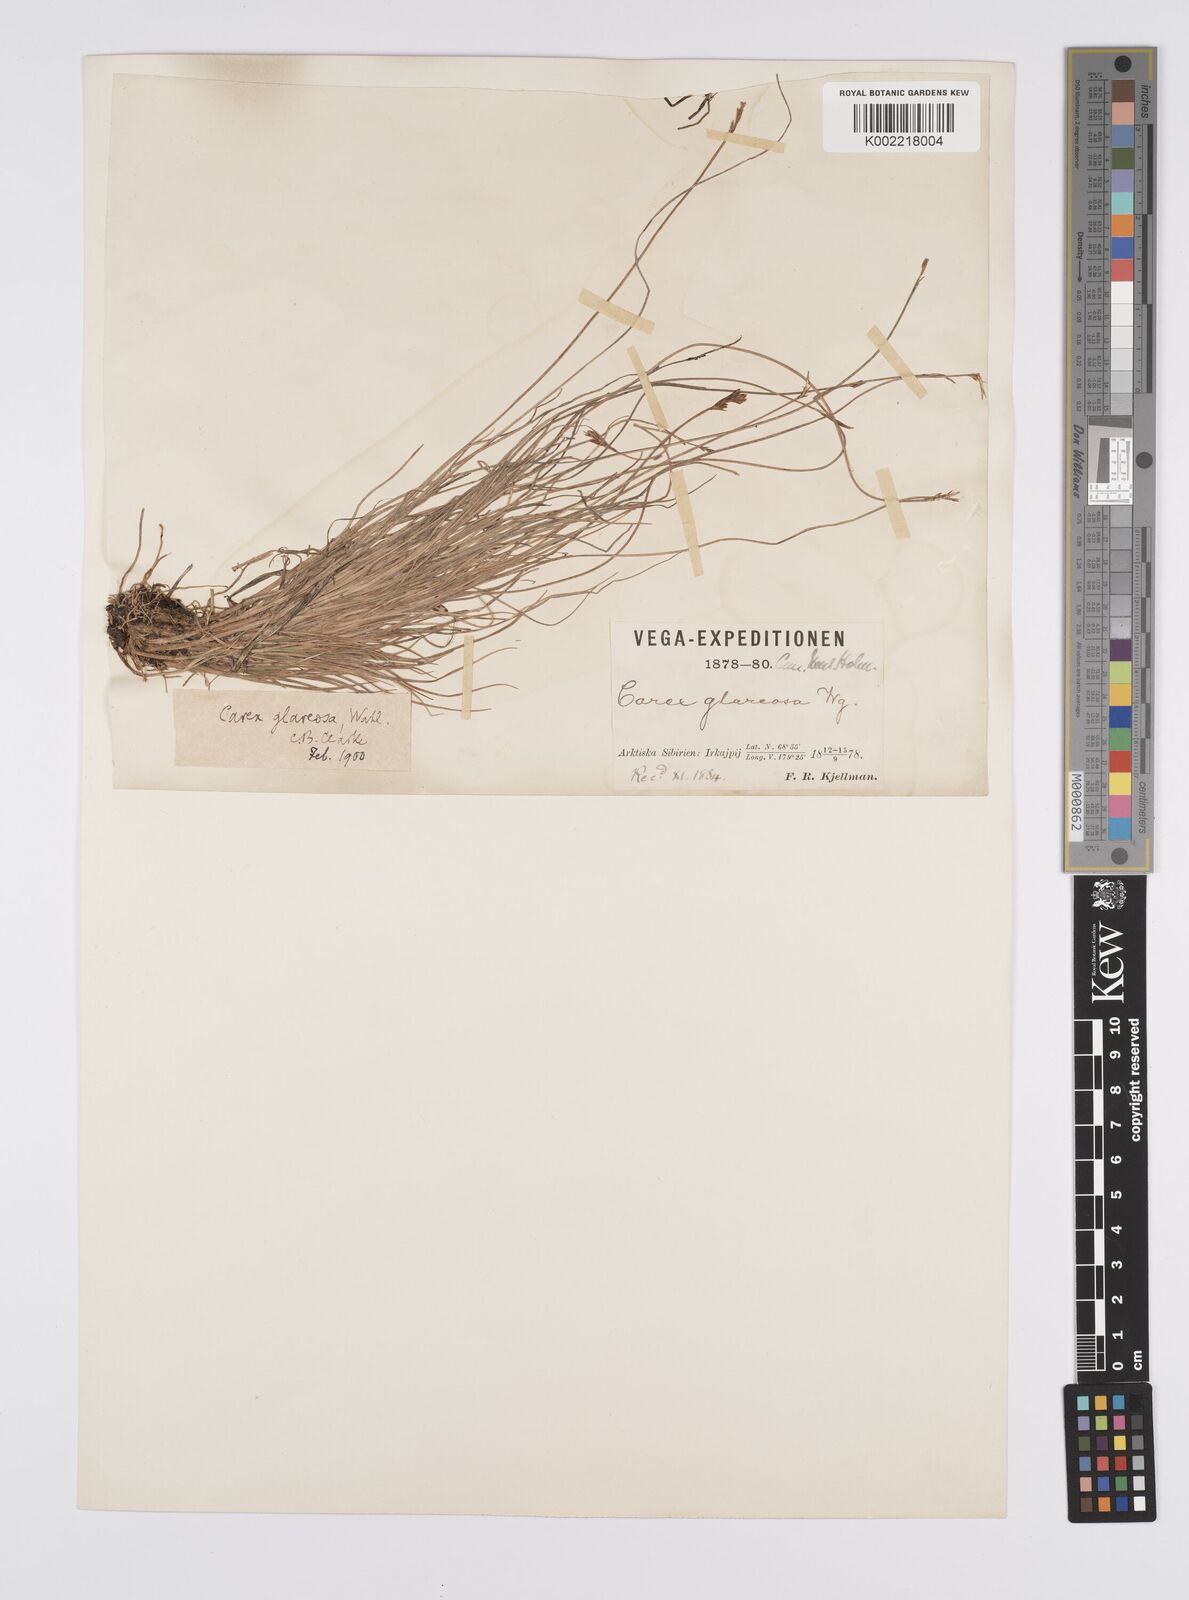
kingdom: Plantae
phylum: Tracheophyta
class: Liliopsida
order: Poales
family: Cyperaceae
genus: Carex
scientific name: Carex glareosa
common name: Clustered sedge
